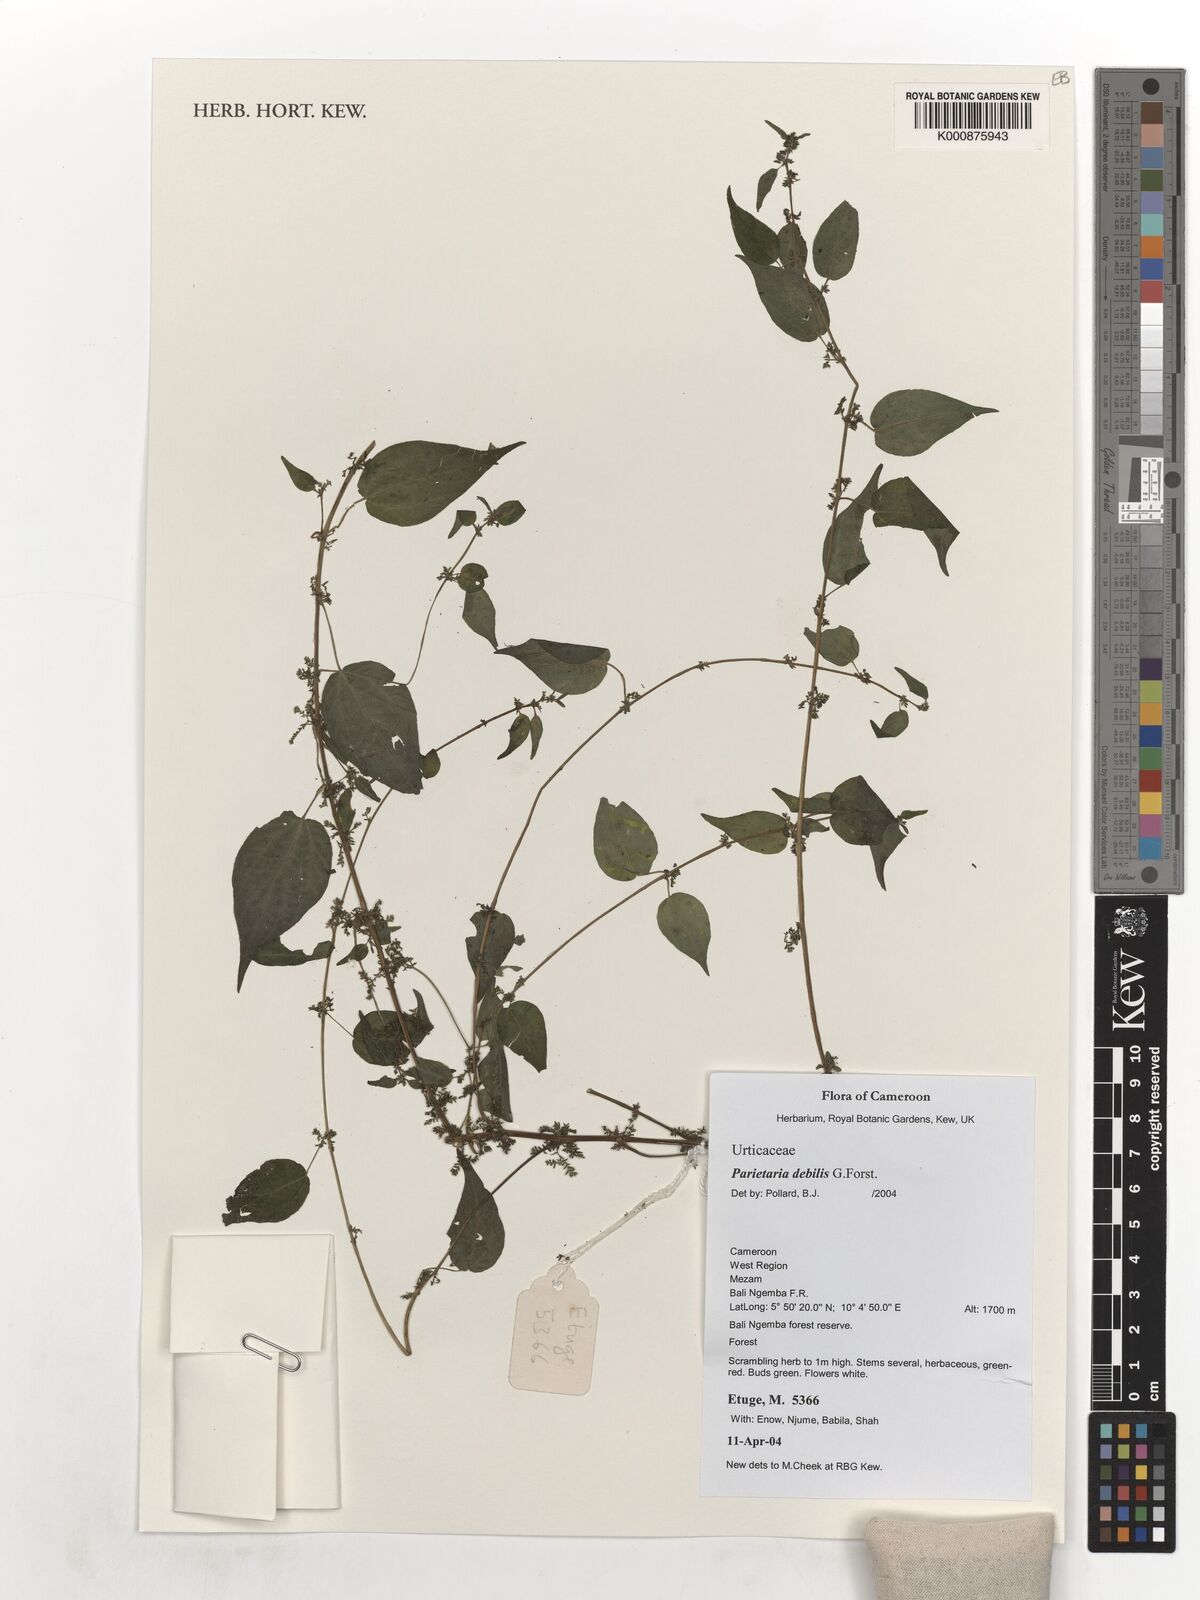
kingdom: Plantae
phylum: Tracheophyta
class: Magnoliopsida
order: Rosales
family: Urticaceae
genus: Parietaria
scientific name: Parietaria debilis
